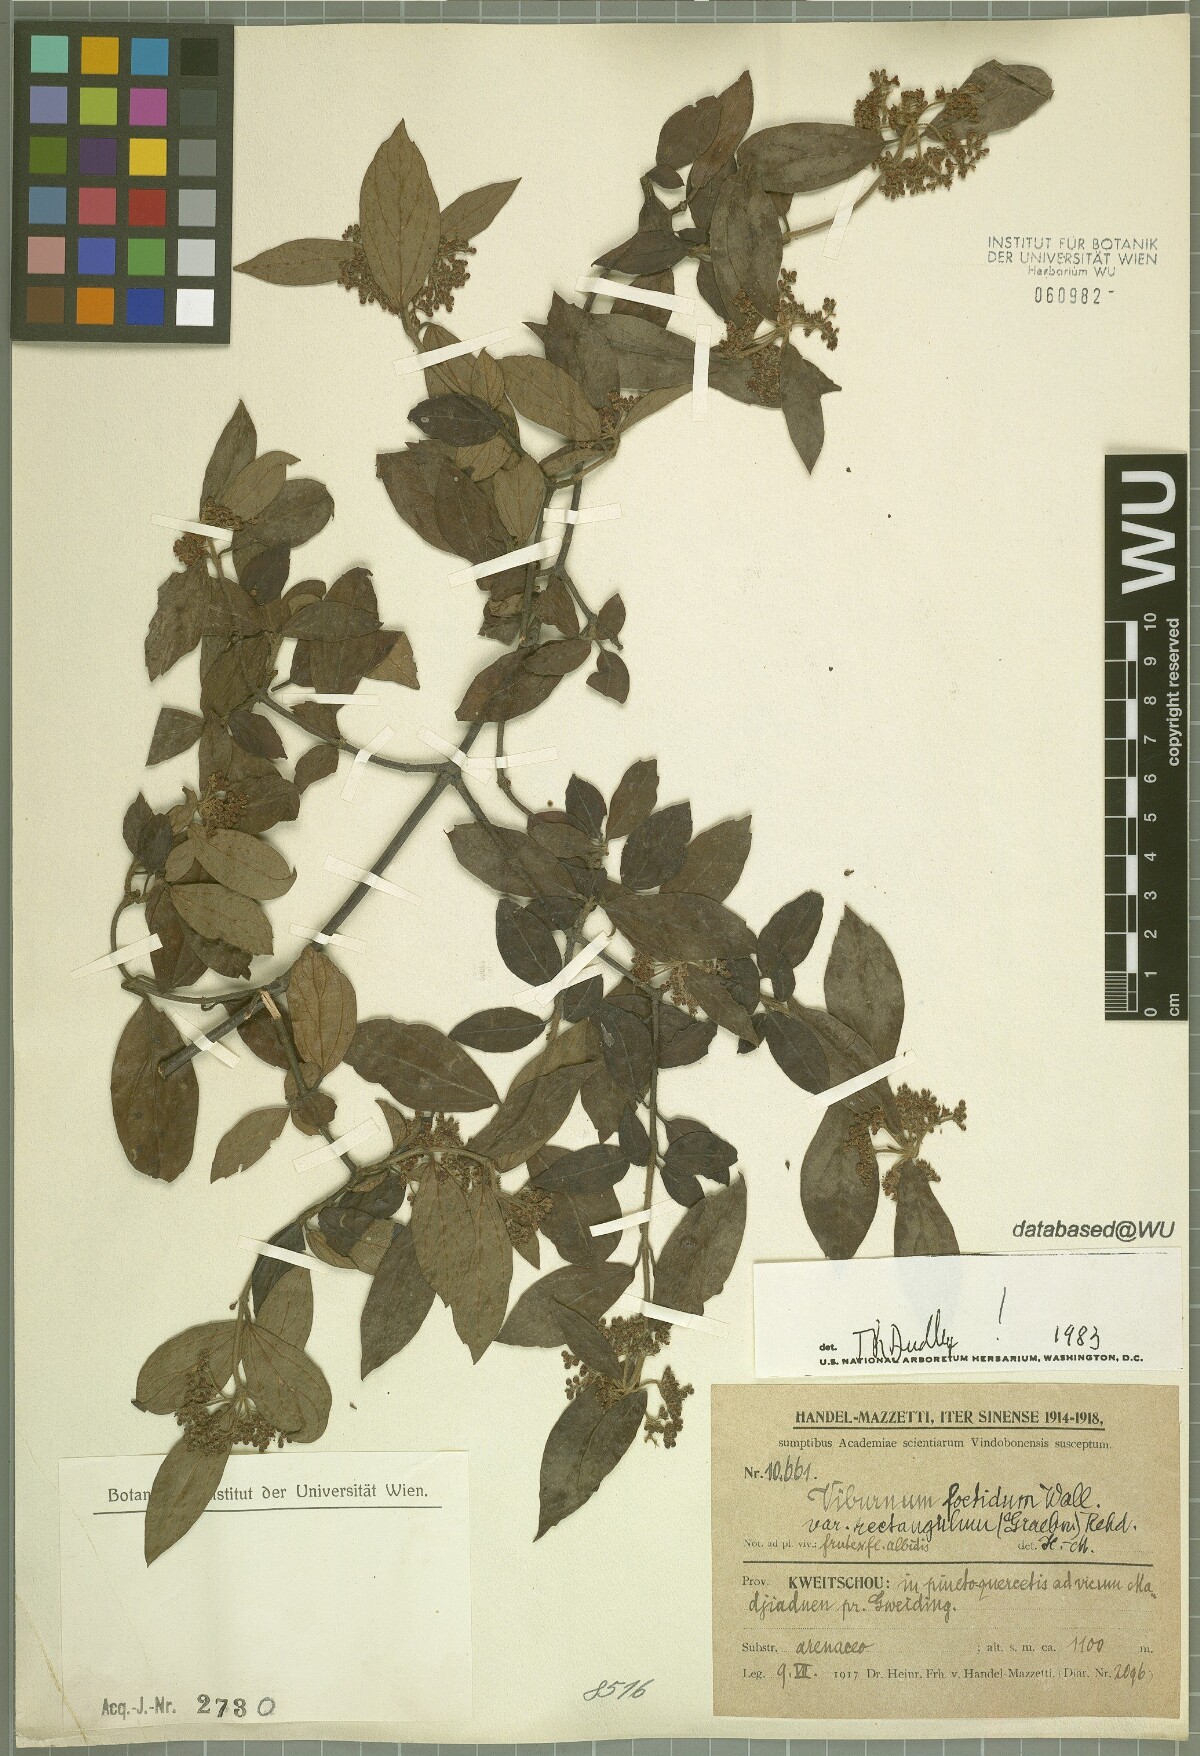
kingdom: Plantae
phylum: Tracheophyta
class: Magnoliopsida
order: Dipsacales
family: Viburnaceae
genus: Viburnum
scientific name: Viburnum foetidum
